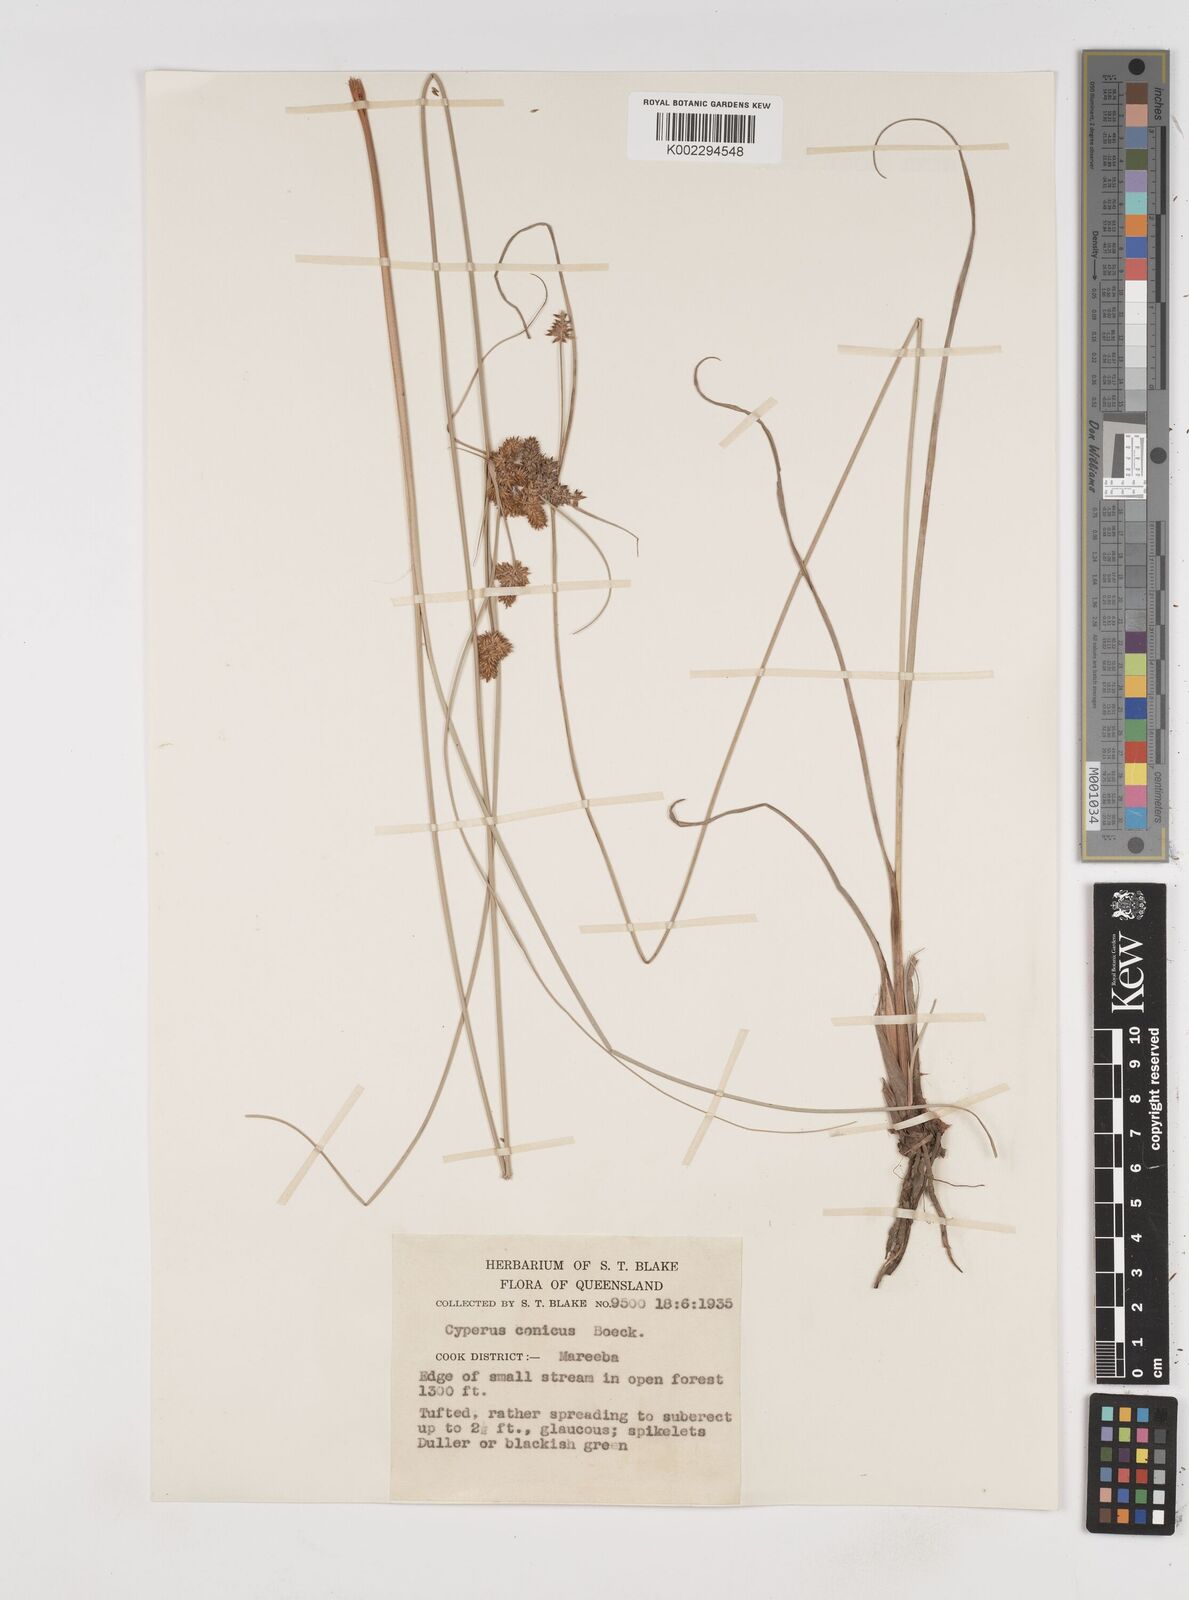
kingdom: Plantae
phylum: Tracheophyta
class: Liliopsida
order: Poales
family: Cyperaceae
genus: Cyperus
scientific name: Cyperus conicus
